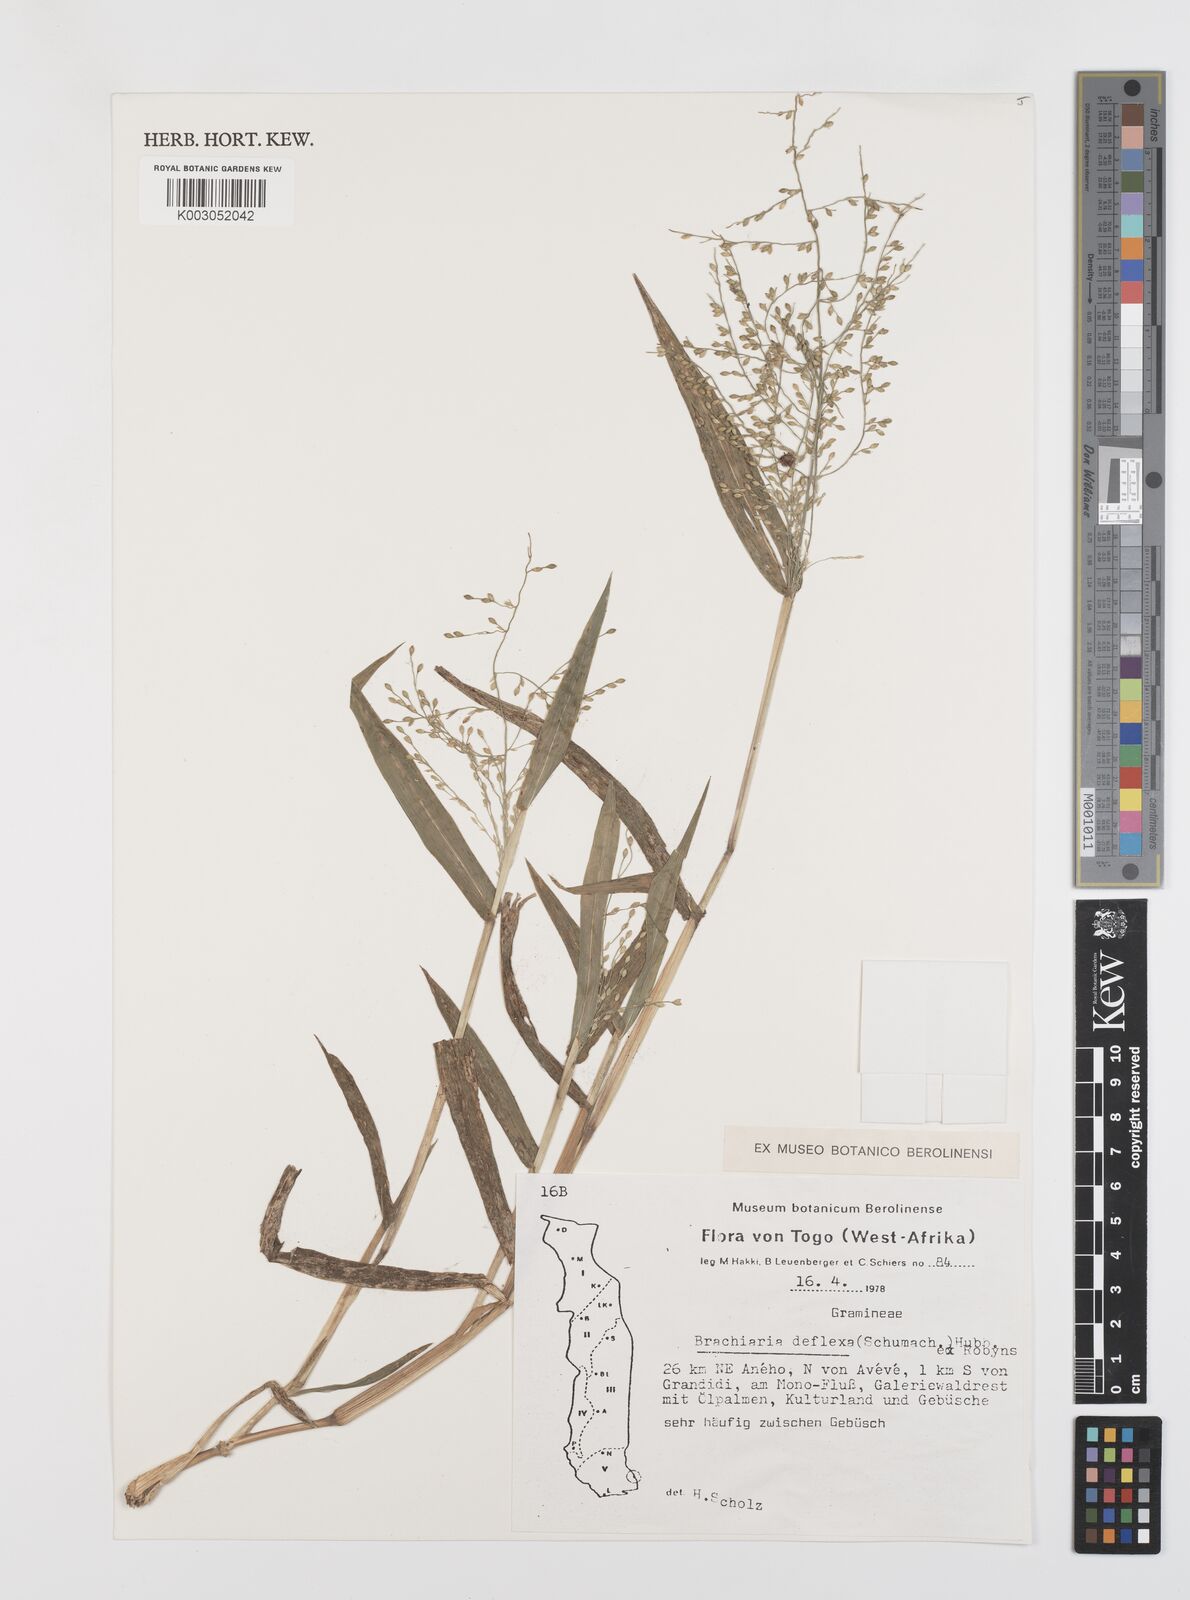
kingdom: Plantae
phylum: Tracheophyta
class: Liliopsida
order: Poales
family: Poaceae
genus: Urochloa
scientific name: Urochloa deflexa
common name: Guinea millet
